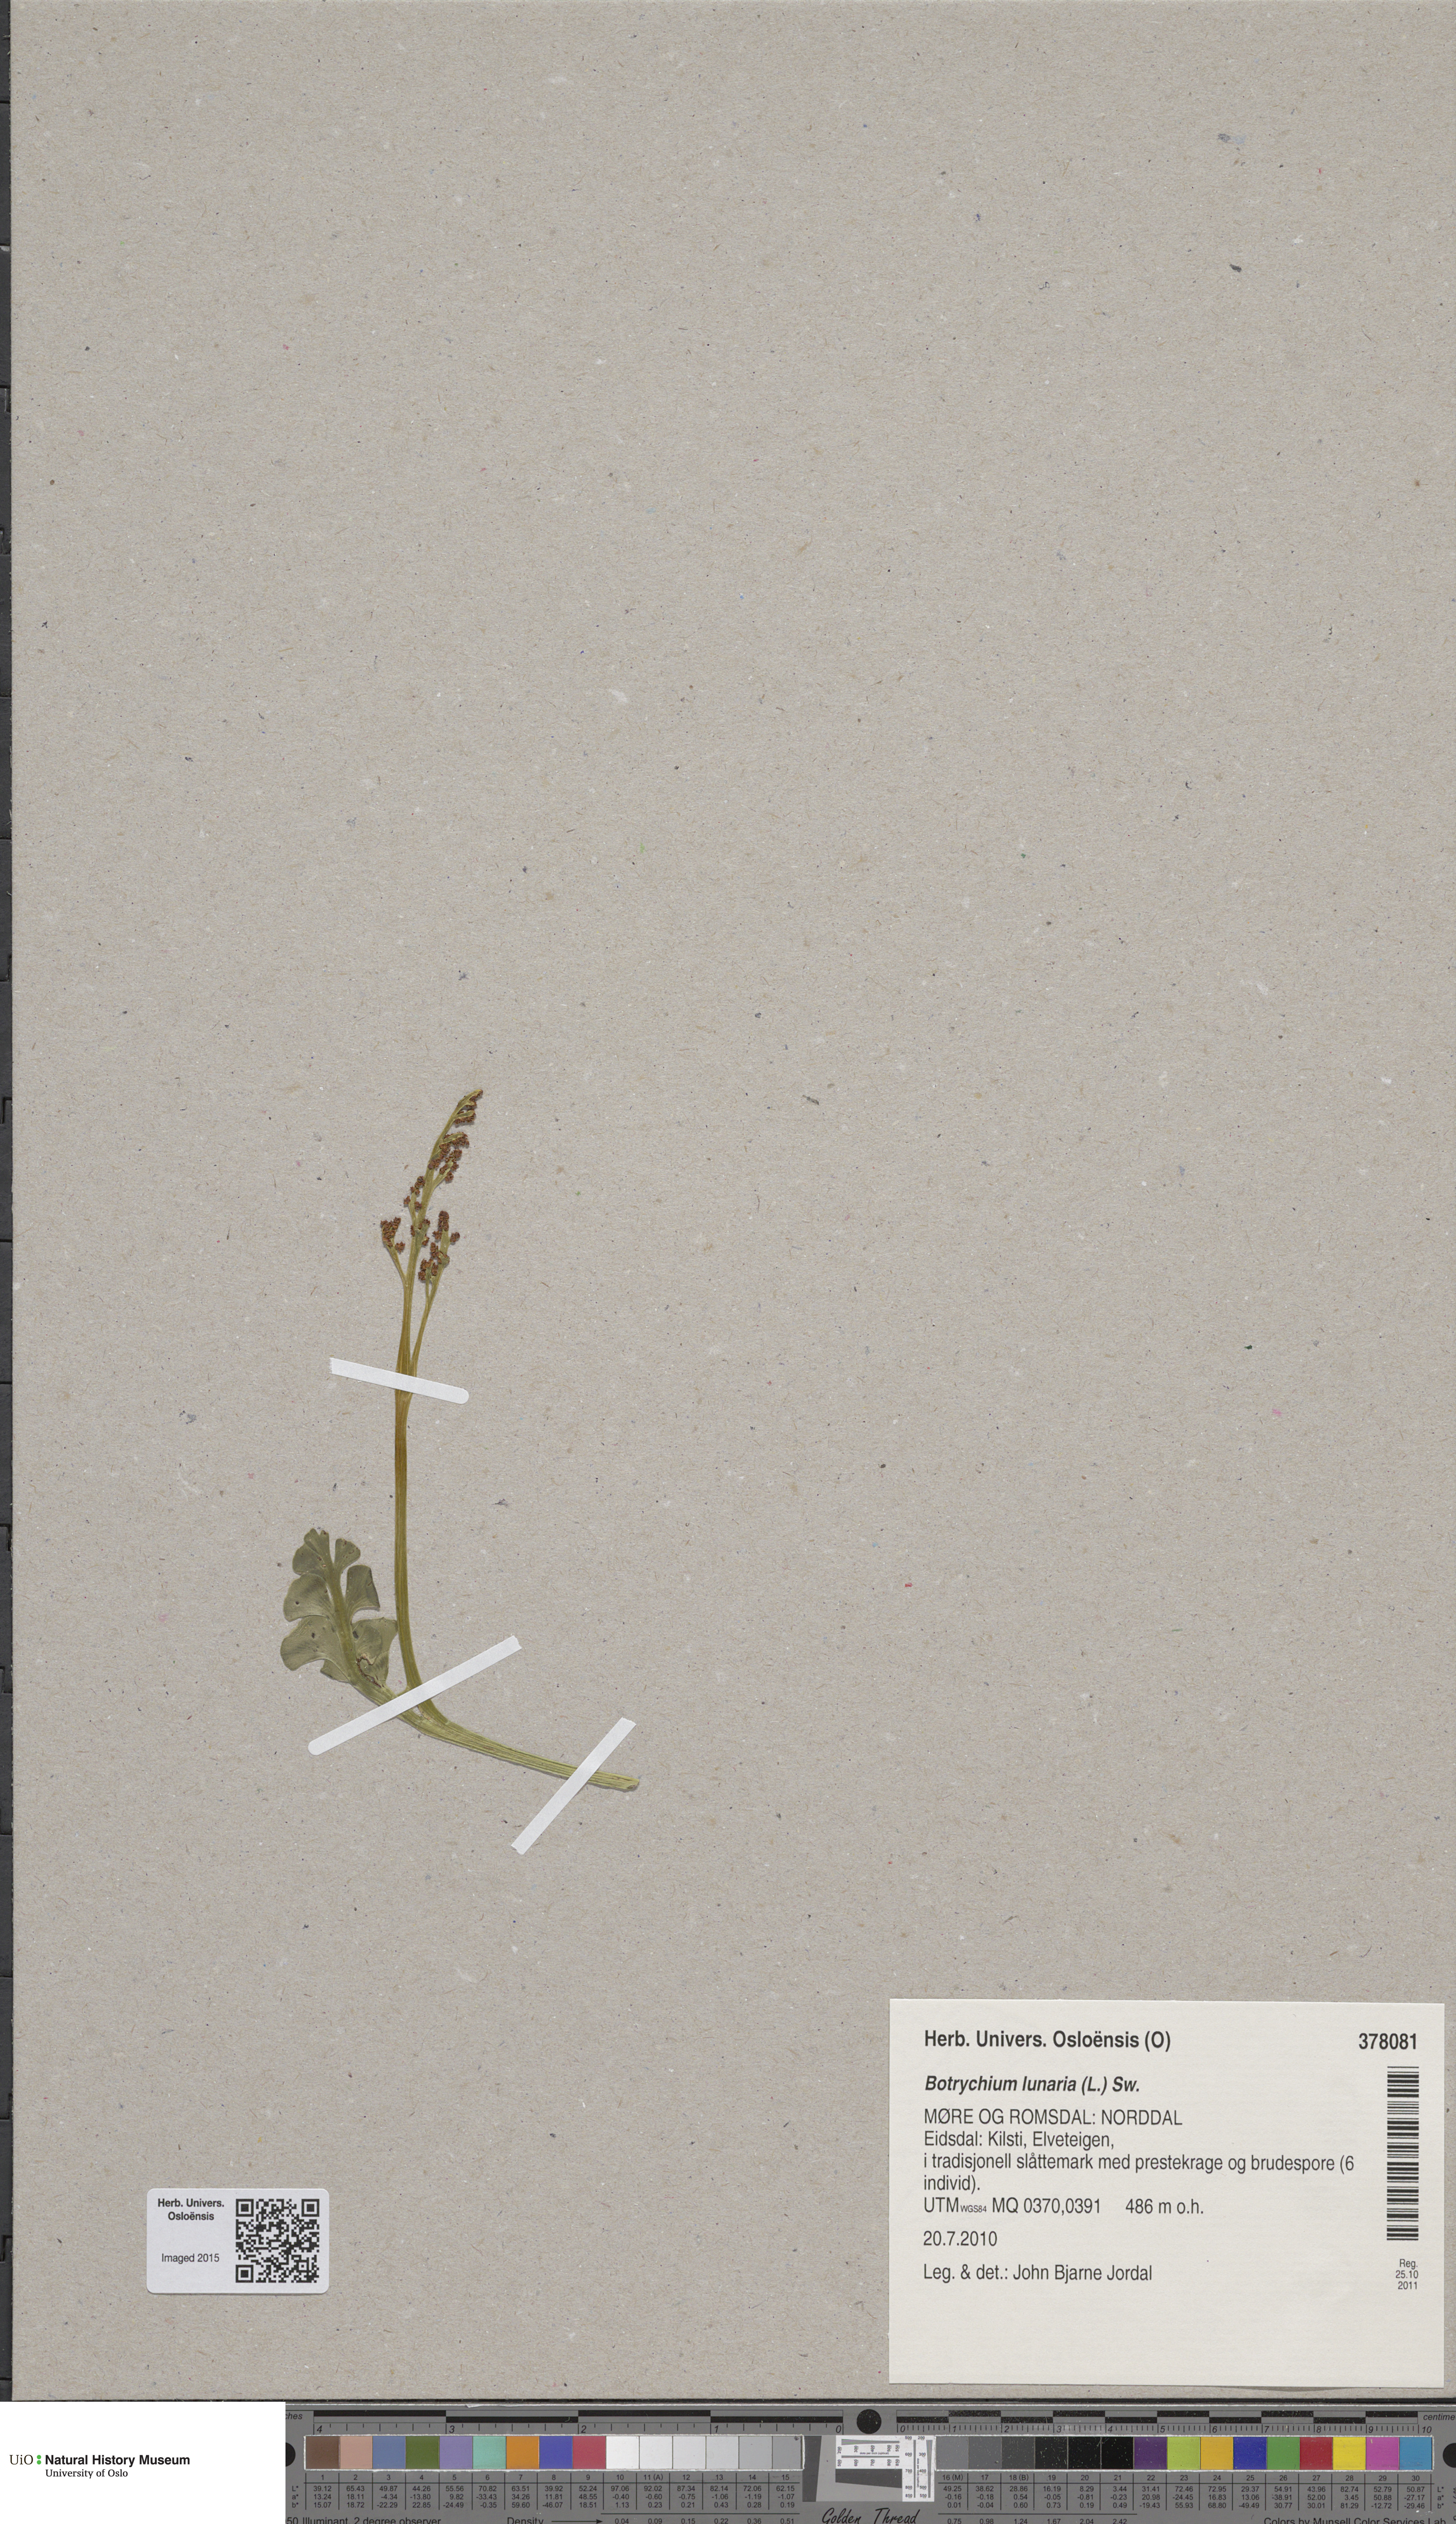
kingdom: Plantae
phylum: Tracheophyta
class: Polypodiopsida
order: Ophioglossales
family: Ophioglossaceae
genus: Botrychium
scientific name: Botrychium lunaria
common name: Moonwort
